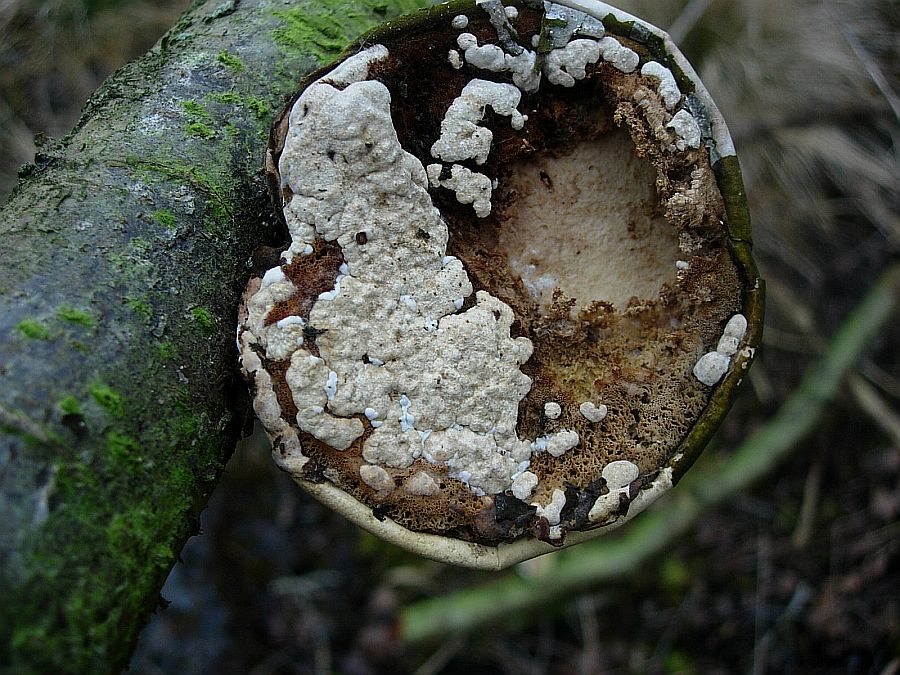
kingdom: Fungi
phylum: Ascomycota
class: Sordariomycetes
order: Hypocreales
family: Hypocreaceae
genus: Trichoderma
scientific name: Trichoderma pulvinatum
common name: snyltende kødkerne
